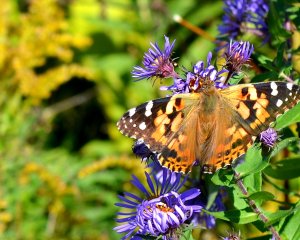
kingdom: Animalia
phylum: Arthropoda
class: Insecta
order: Lepidoptera
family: Nymphalidae
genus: Vanessa
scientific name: Vanessa cardui
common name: Painted Lady
